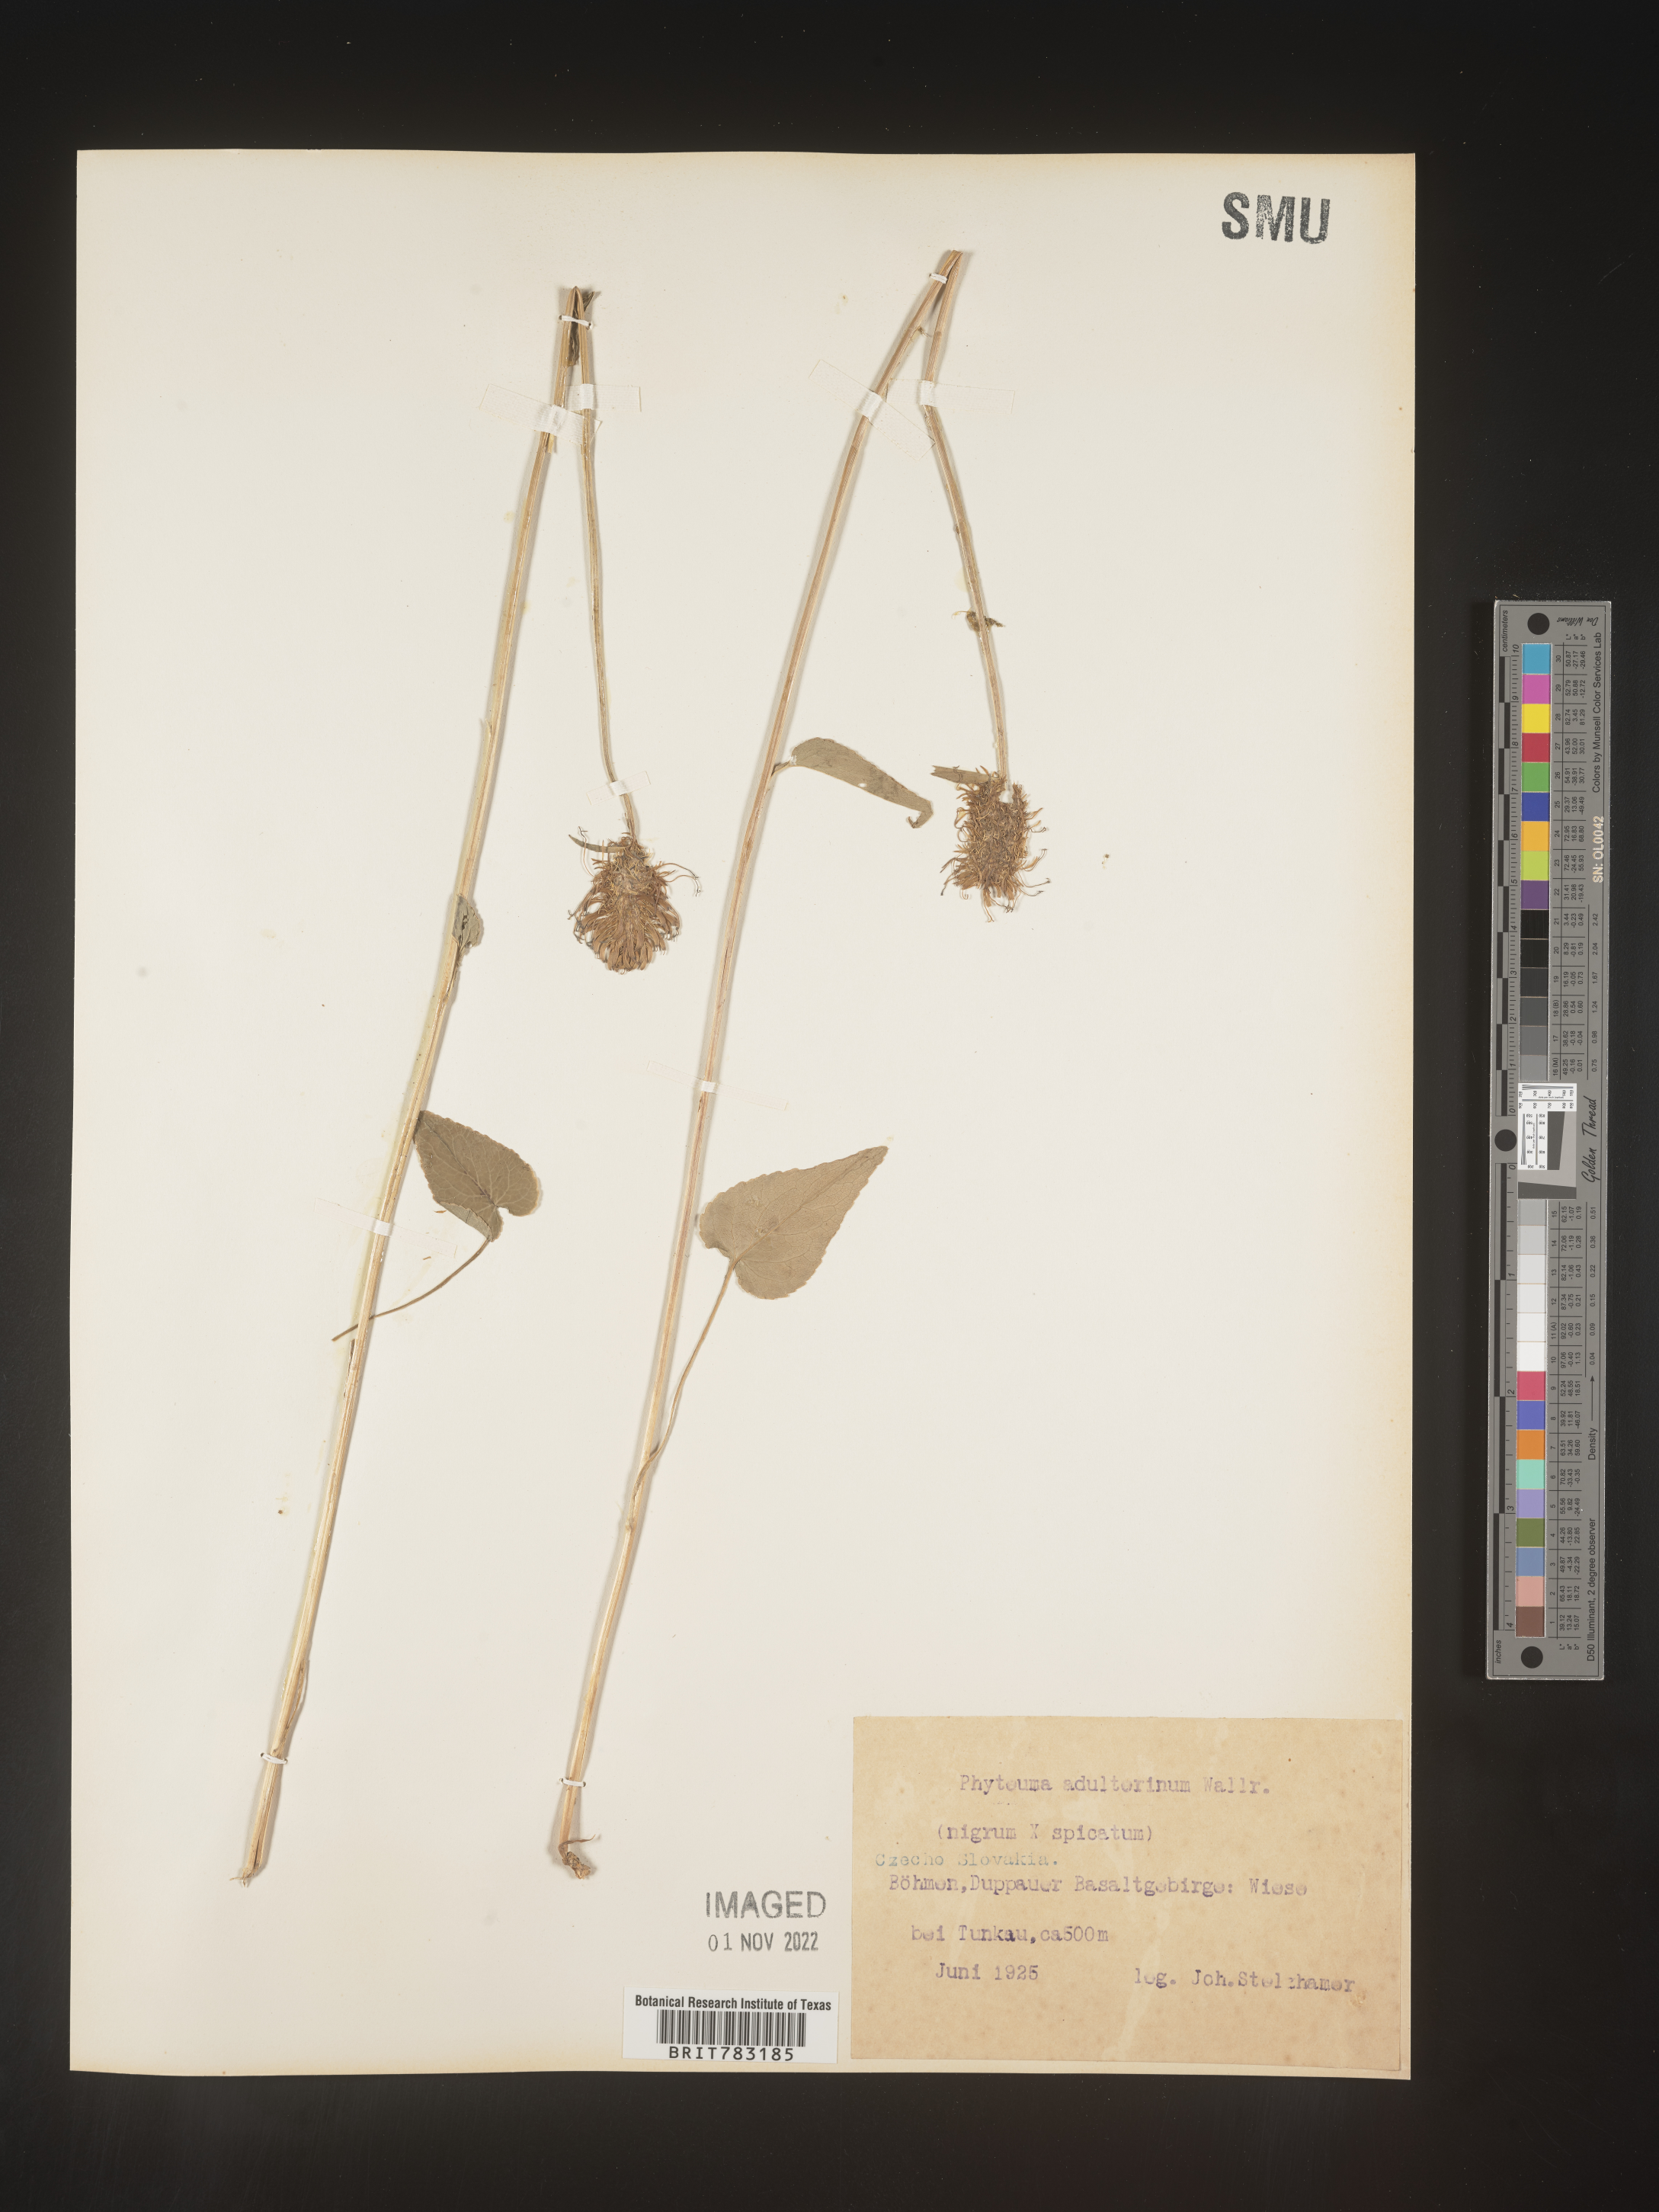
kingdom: Plantae
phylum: Tracheophyta
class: Magnoliopsida
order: Asterales
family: Campanulaceae
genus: Phyteuma
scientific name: Phyteuma
